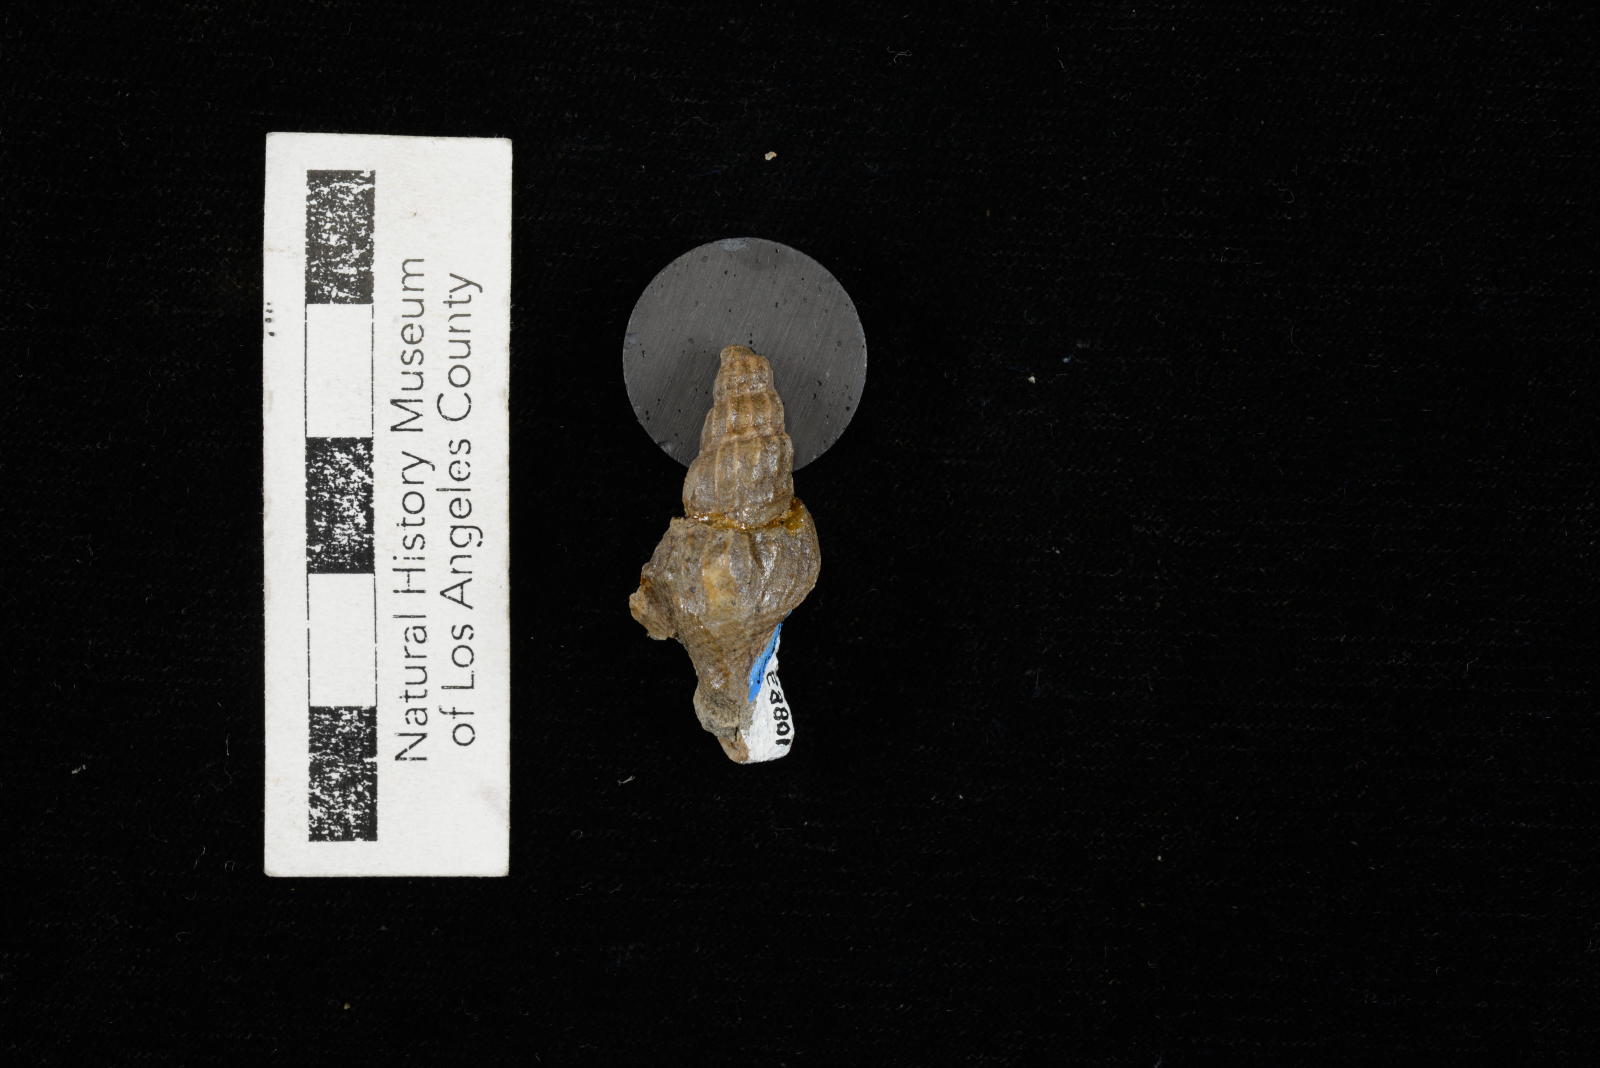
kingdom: Animalia
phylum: Mollusca
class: Gastropoda
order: Littorinimorpha
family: Aporrhaidae
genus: Alarimella
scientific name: Alarimella veta
